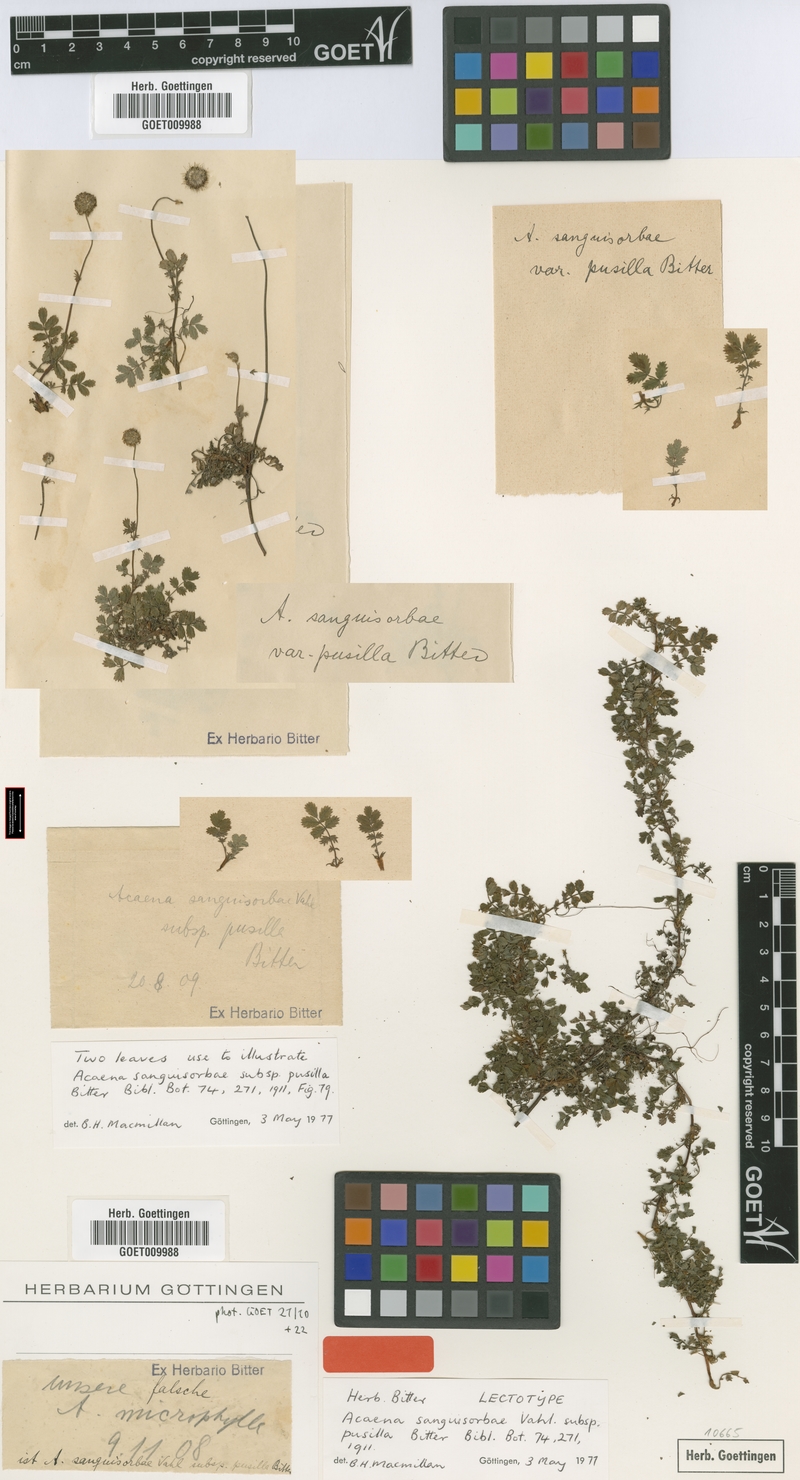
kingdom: Plantae
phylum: Tracheophyta
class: Magnoliopsida
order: Rosales
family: Rosaceae
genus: Acaena
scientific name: Acaena anserinifolia
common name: Bronze pirri-pirri-bur
